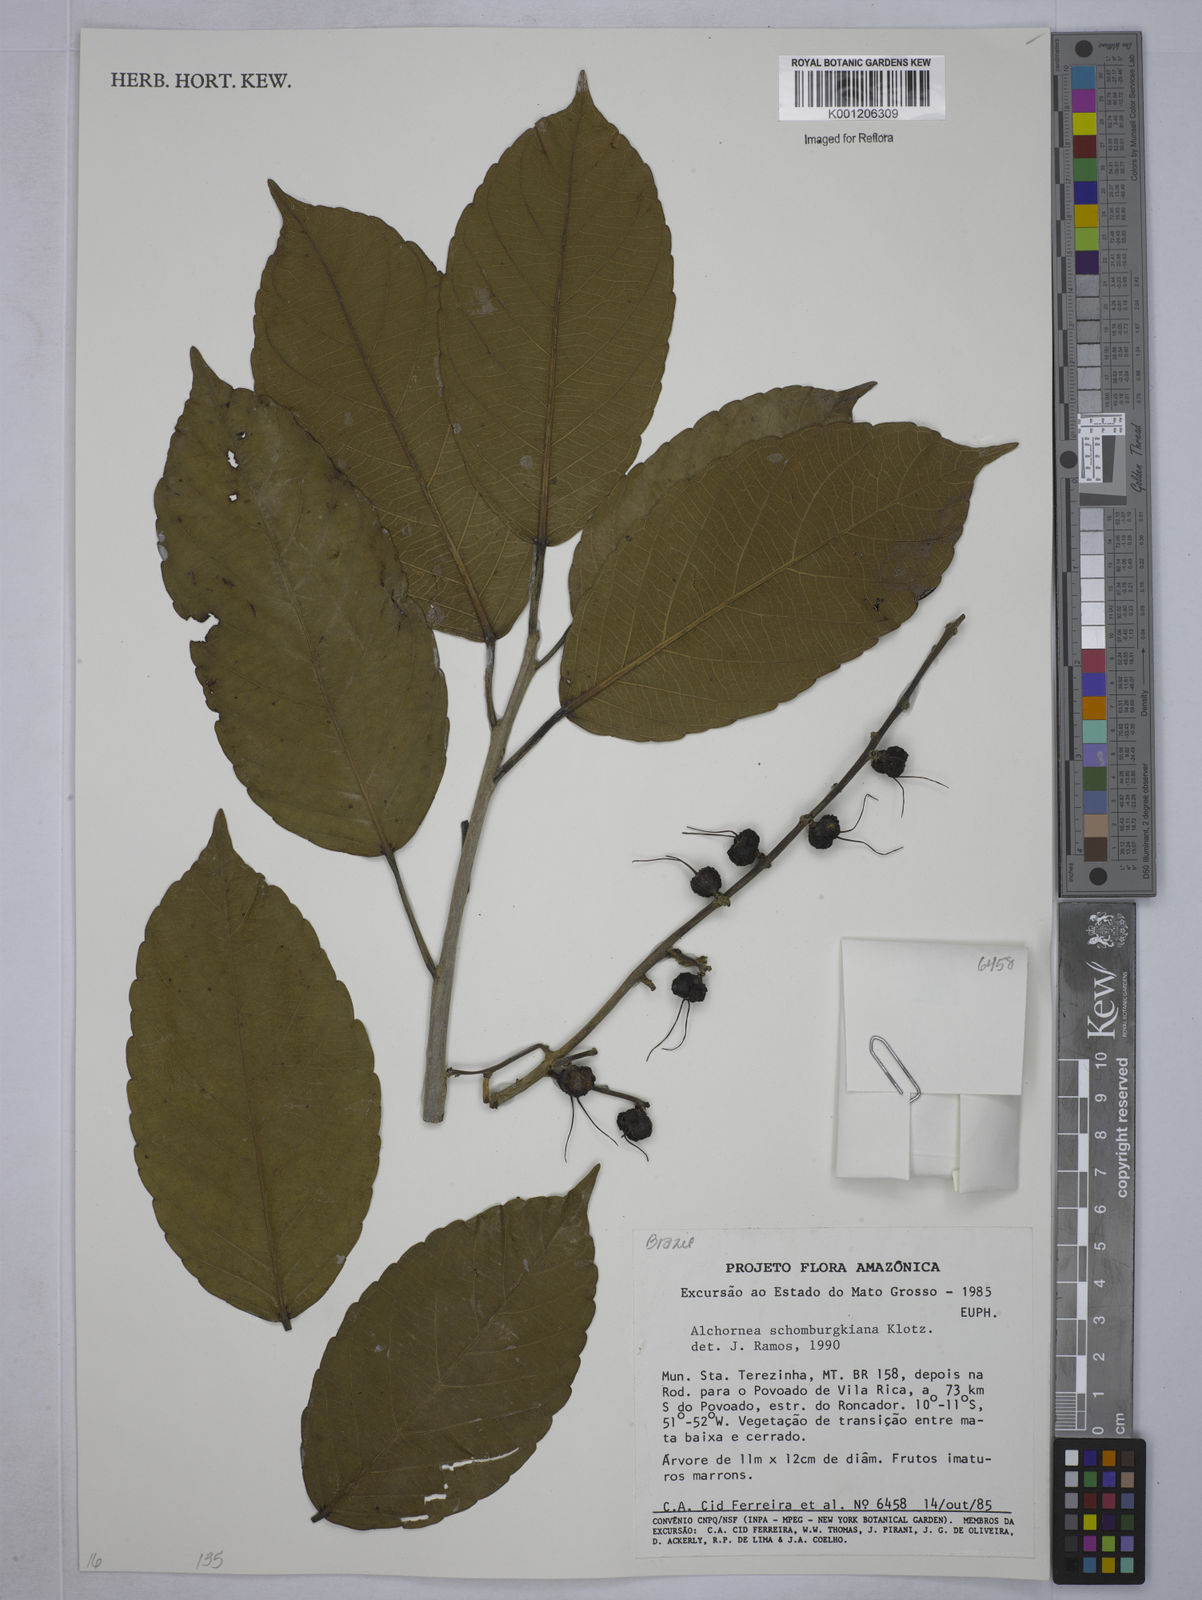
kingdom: Plantae
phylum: Tracheophyta
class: Magnoliopsida
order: Malpighiales
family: Euphorbiaceae
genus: Alchornea
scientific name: Alchornea discolor
